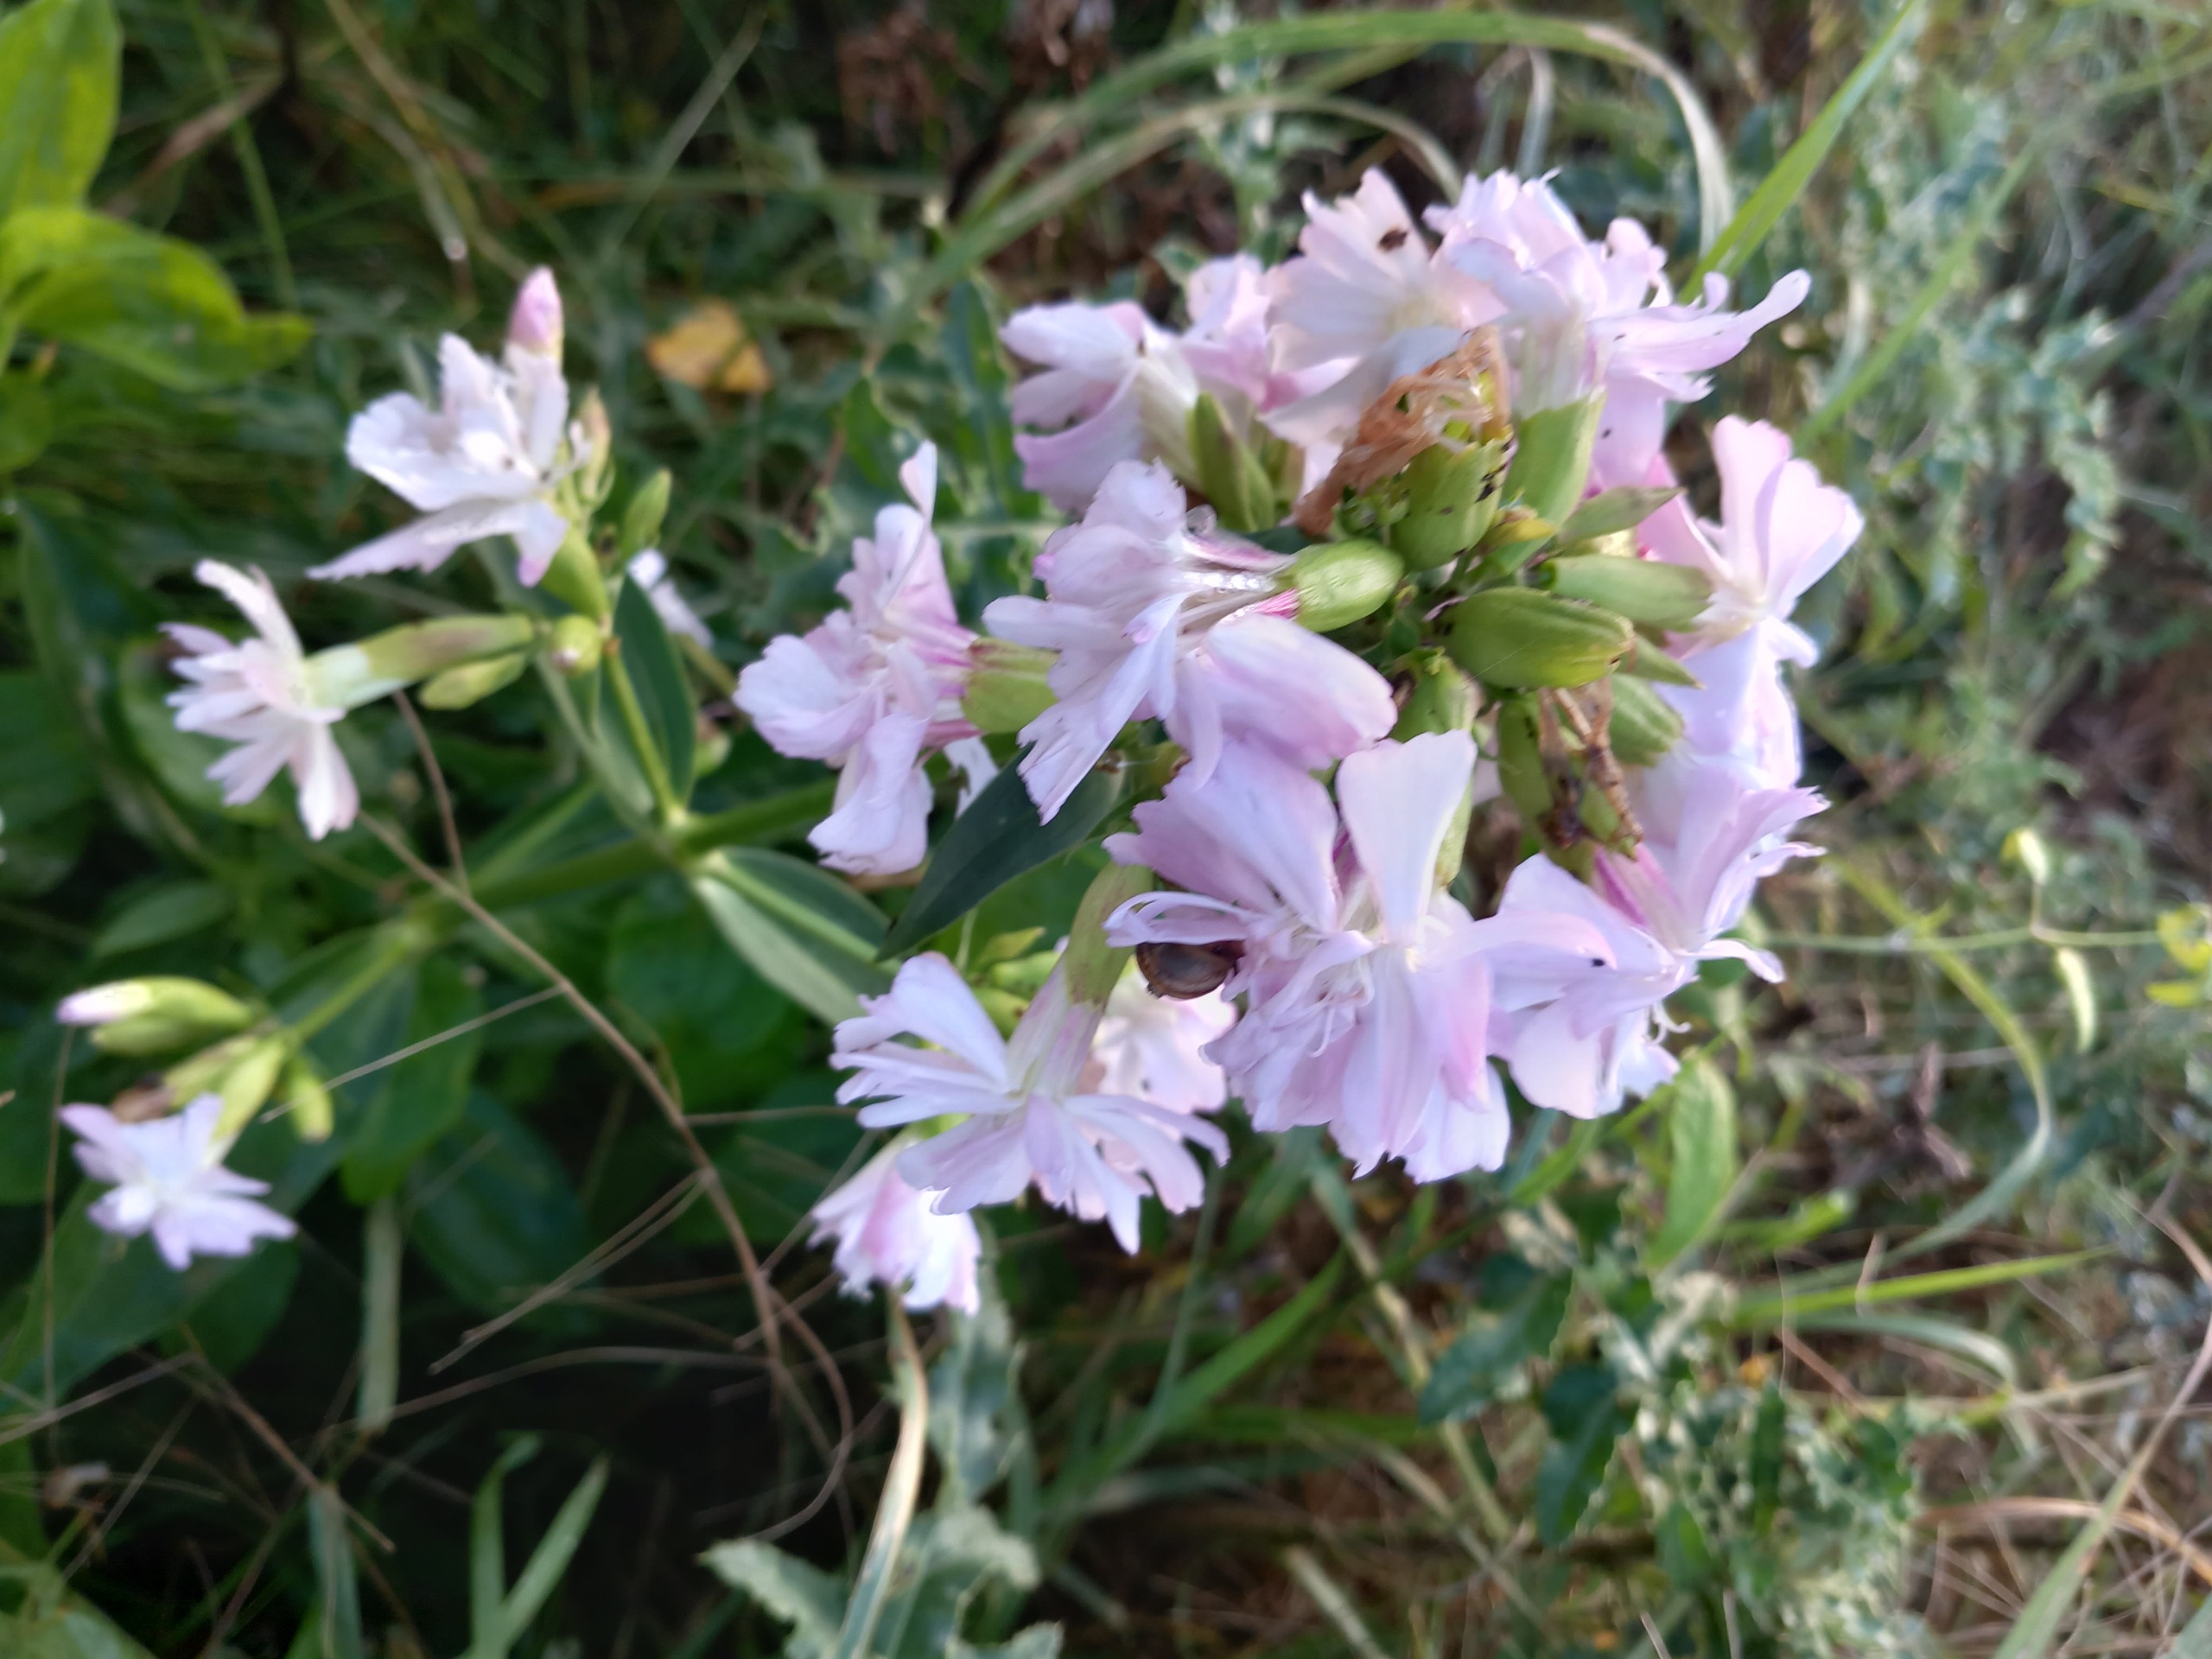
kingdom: Plantae
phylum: Tracheophyta
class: Magnoliopsida
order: Caryophyllales
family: Caryophyllaceae
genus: Saponaria
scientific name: Saponaria officinalis
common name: Sæbeurt
